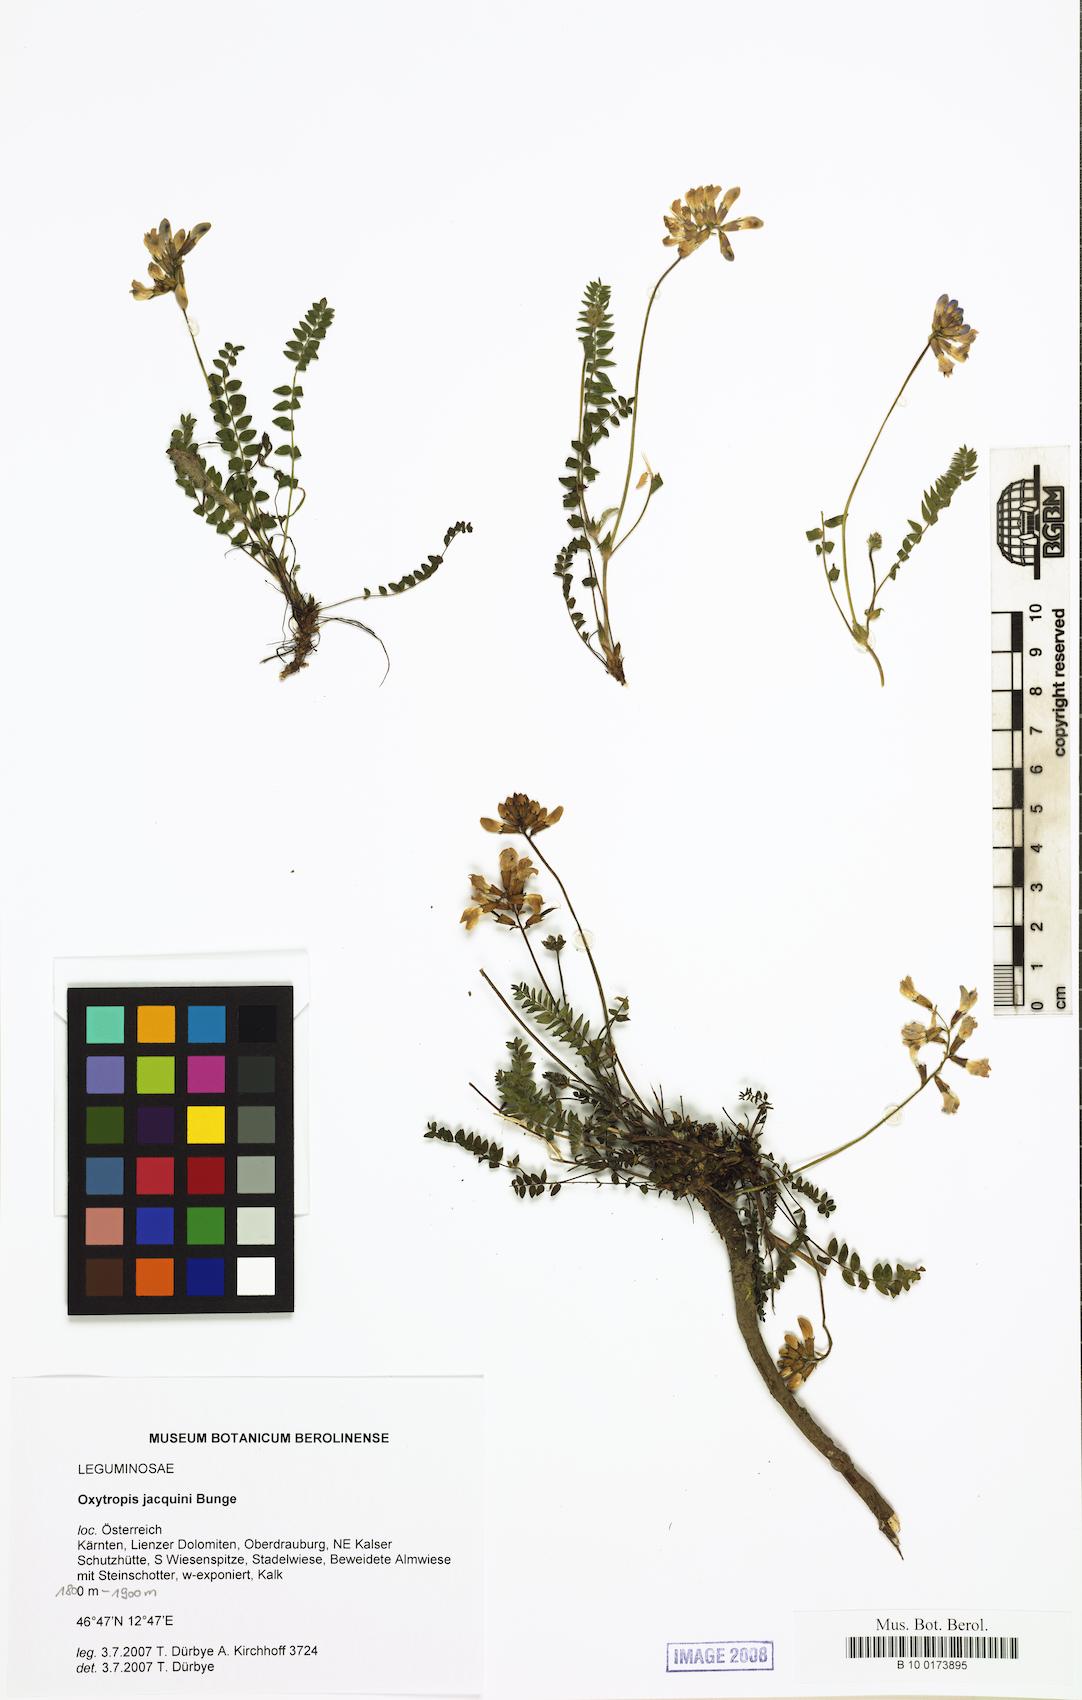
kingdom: Plantae
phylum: Tracheophyta
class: Magnoliopsida
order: Fabales
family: Fabaceae
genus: Oxytropis
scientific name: Oxytropis montana
